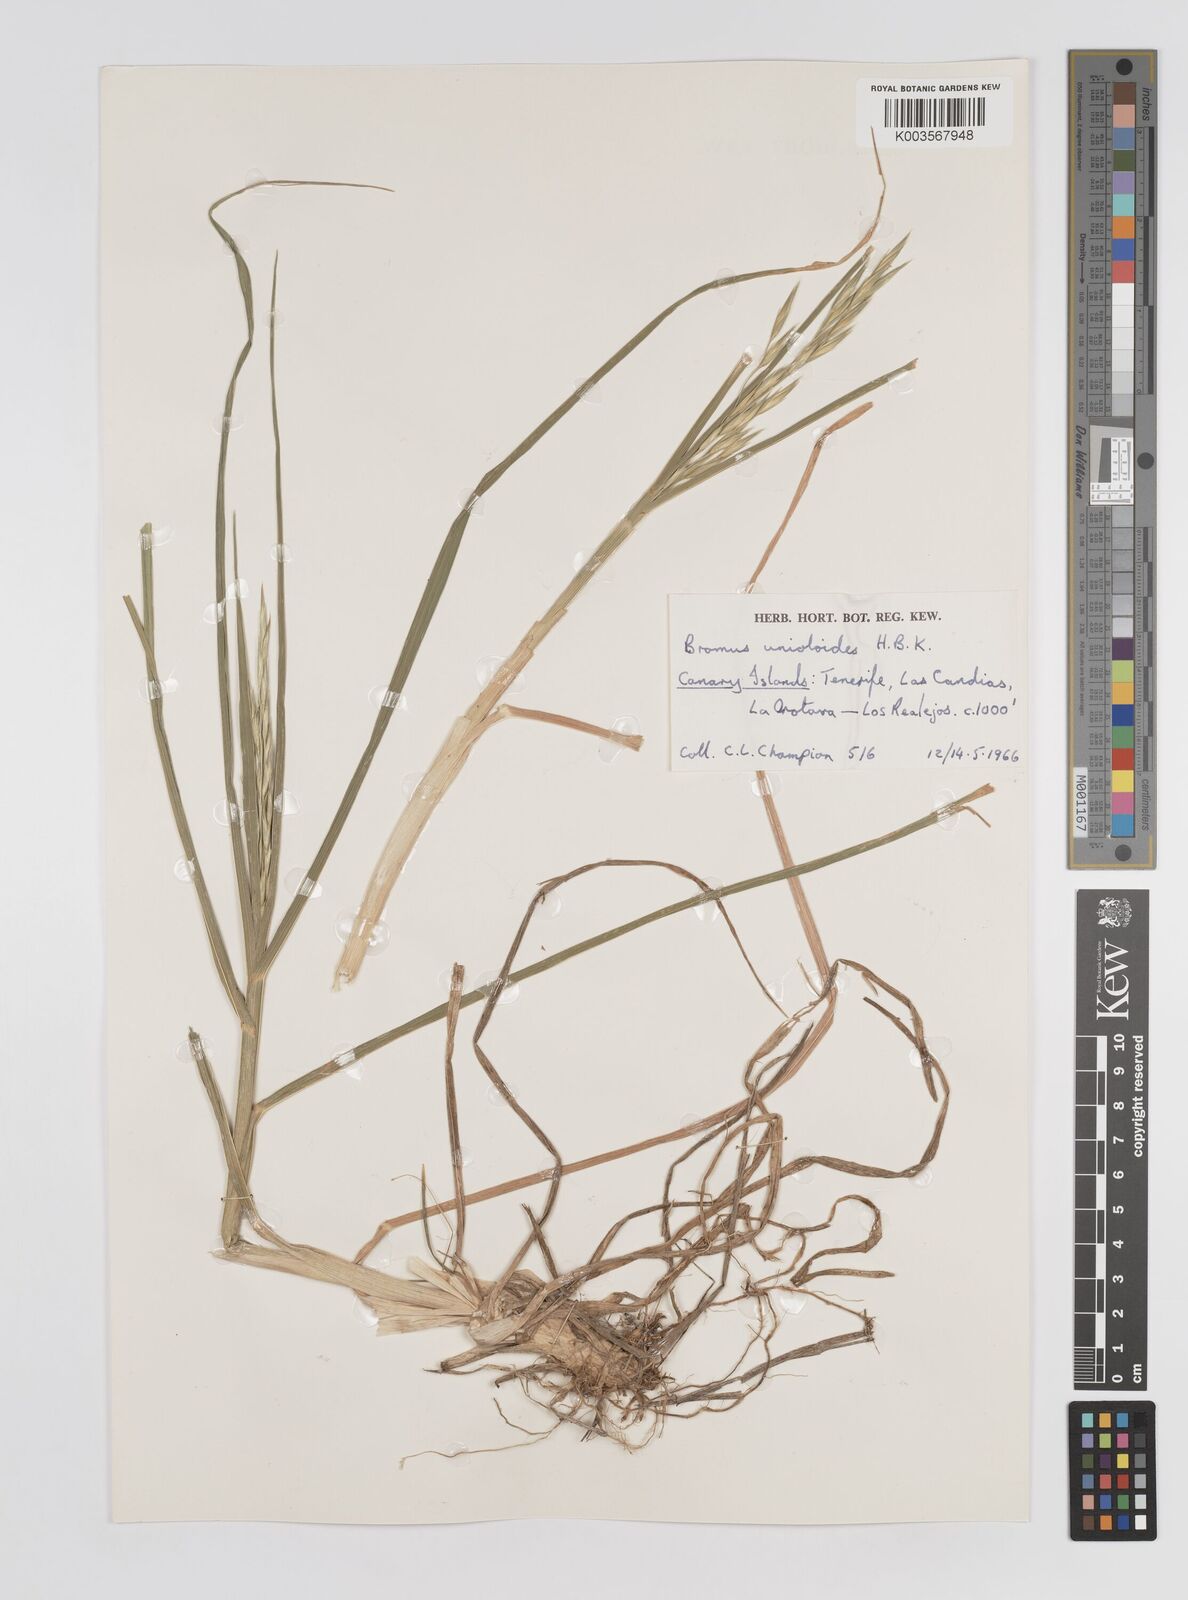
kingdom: Plantae
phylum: Tracheophyta
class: Liliopsida
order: Poales
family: Poaceae
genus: Bromus
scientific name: Bromus catharticus
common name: Rescuegrass
